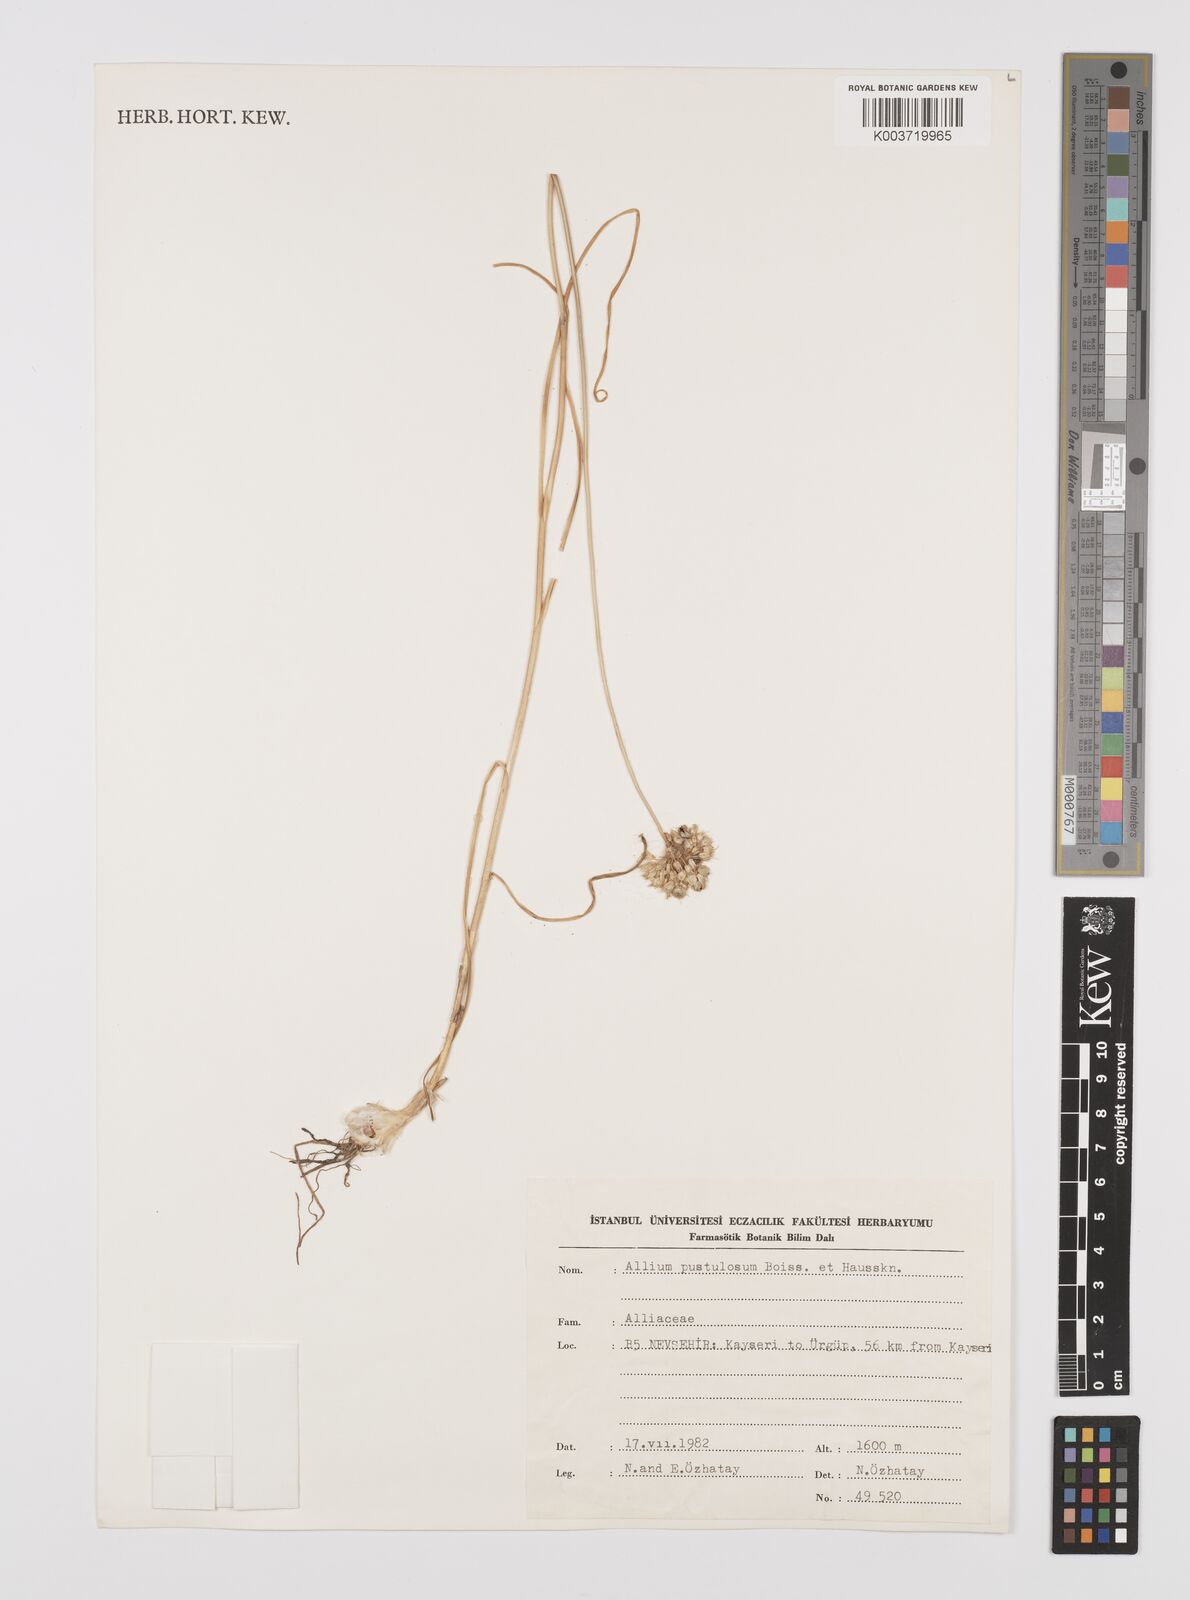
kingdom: Plantae
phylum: Tracheophyta
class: Liliopsida
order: Asparagales
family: Amaryllidaceae
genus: Allium
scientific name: Allium pustulosum
